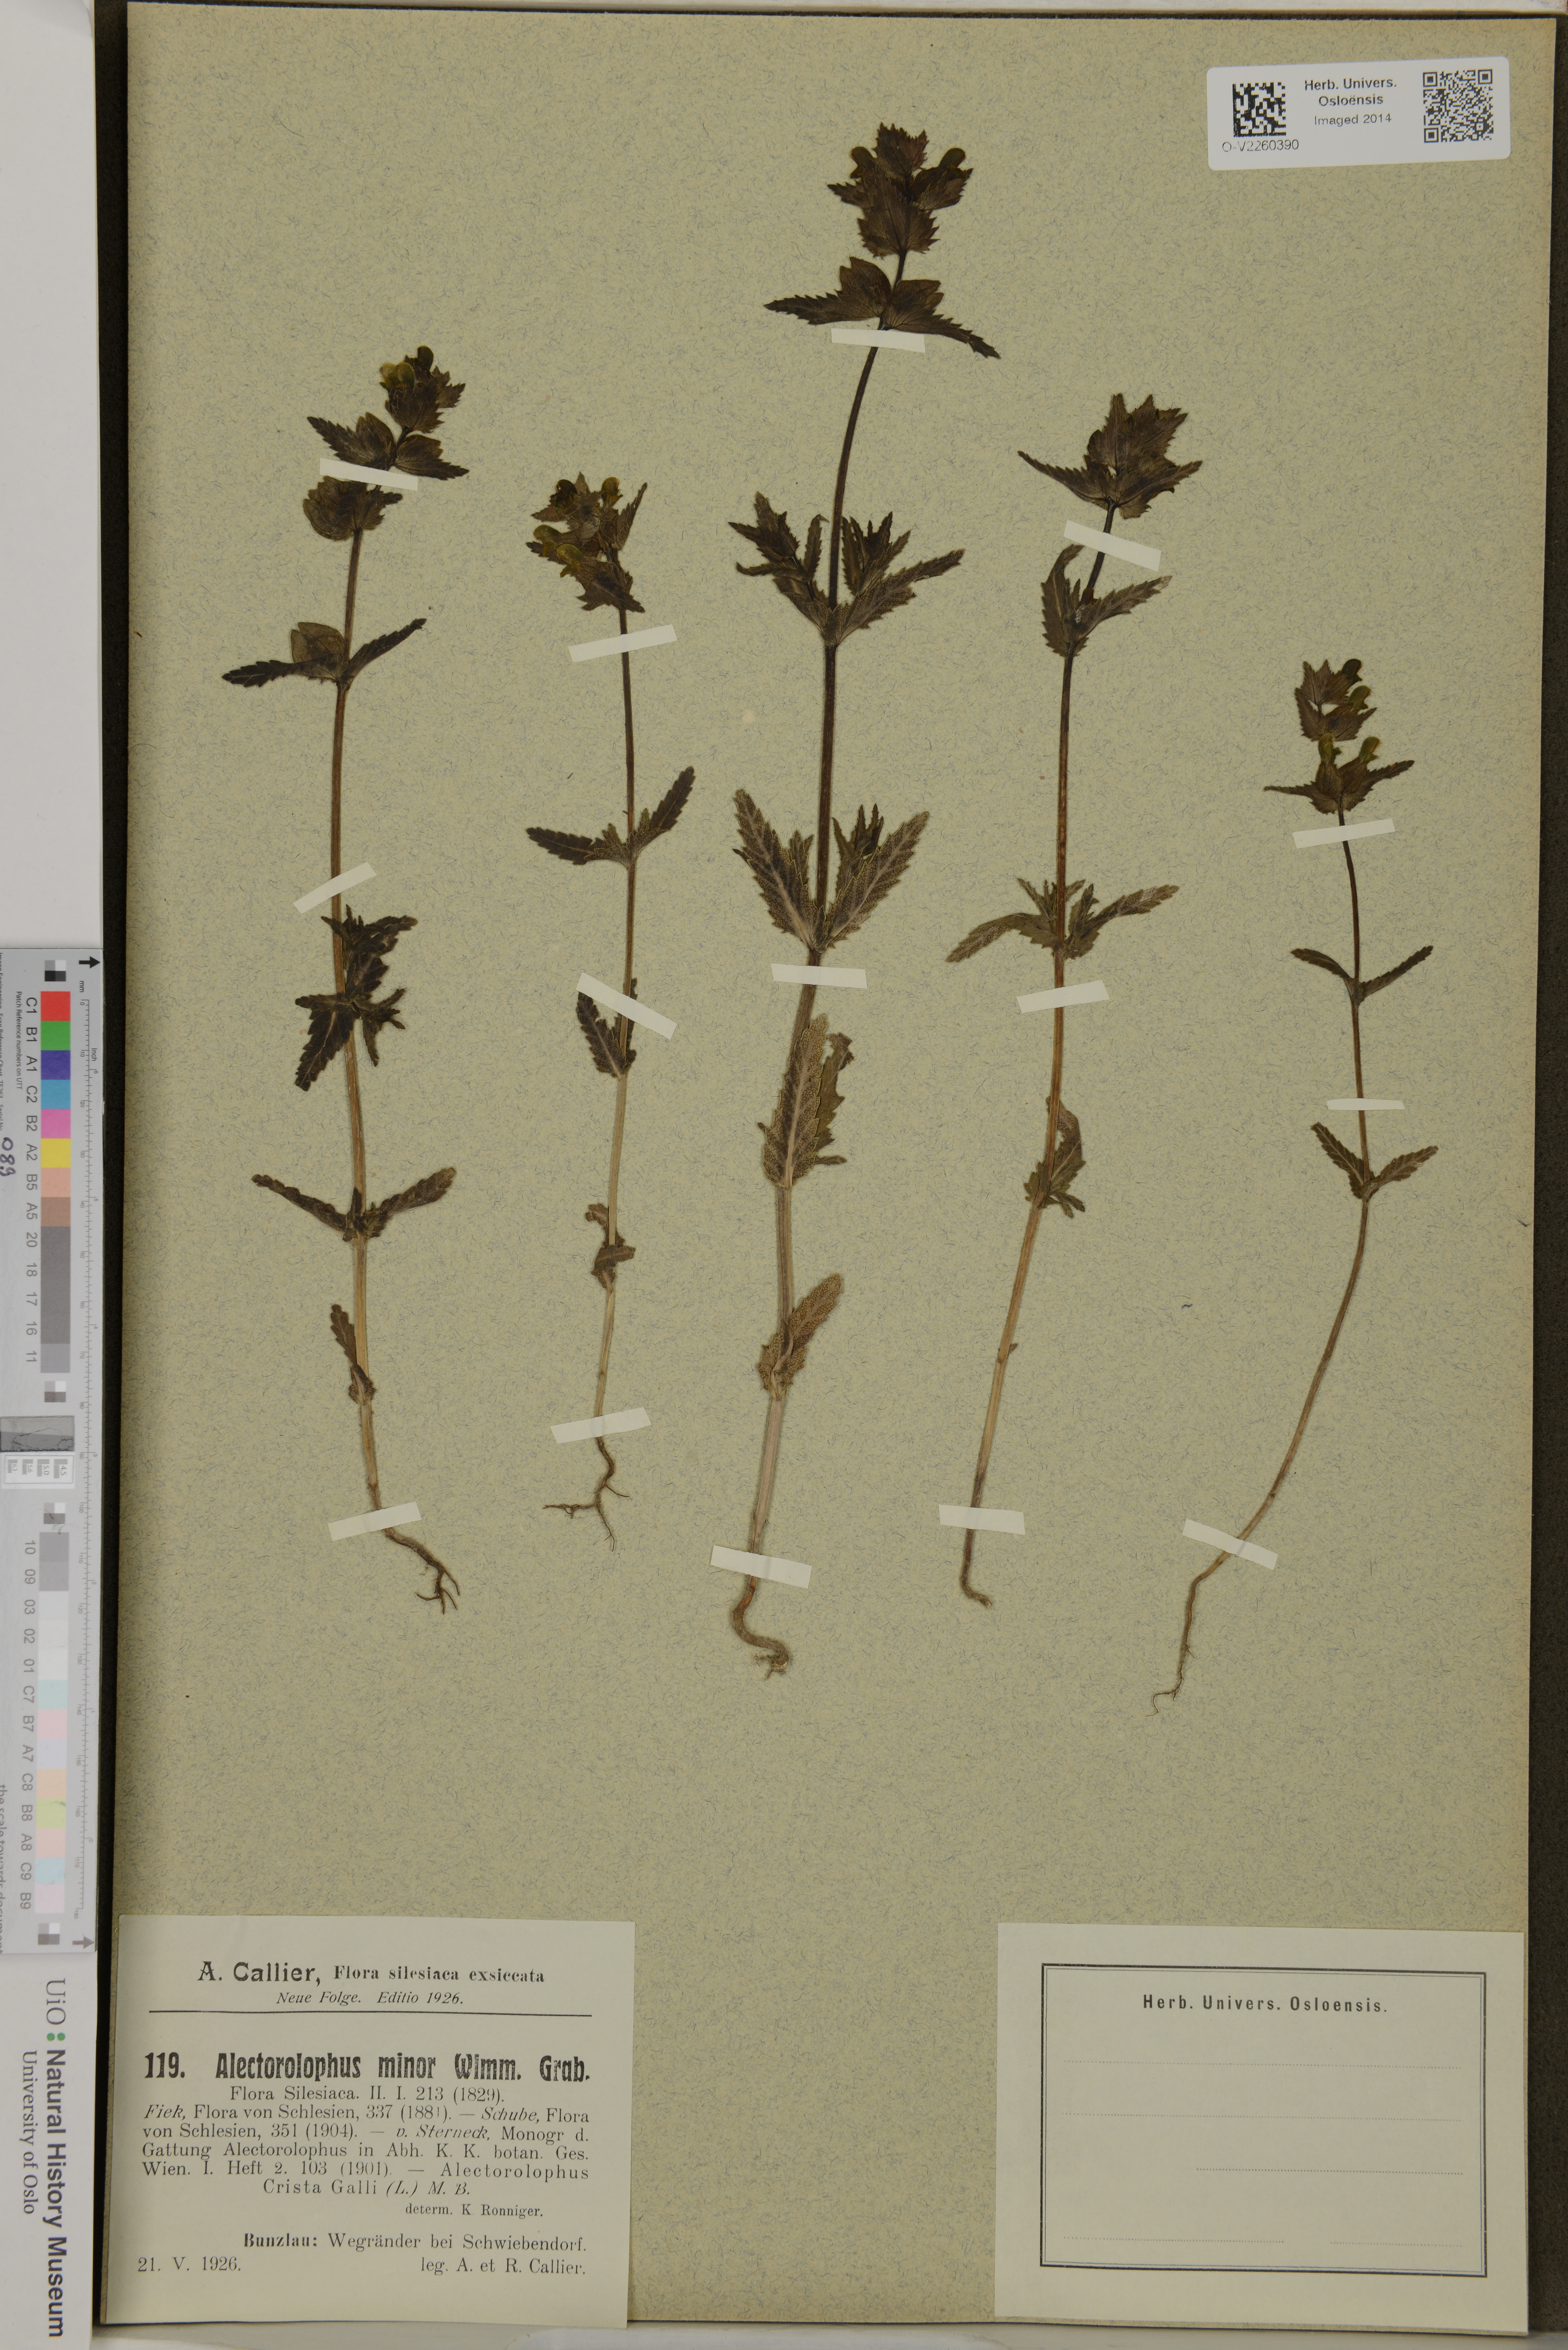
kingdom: Plantae
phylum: Tracheophyta
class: Magnoliopsida
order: Lamiales
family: Orobanchaceae
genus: Rhinanthus
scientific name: Rhinanthus minor
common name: Yellow-rattle
